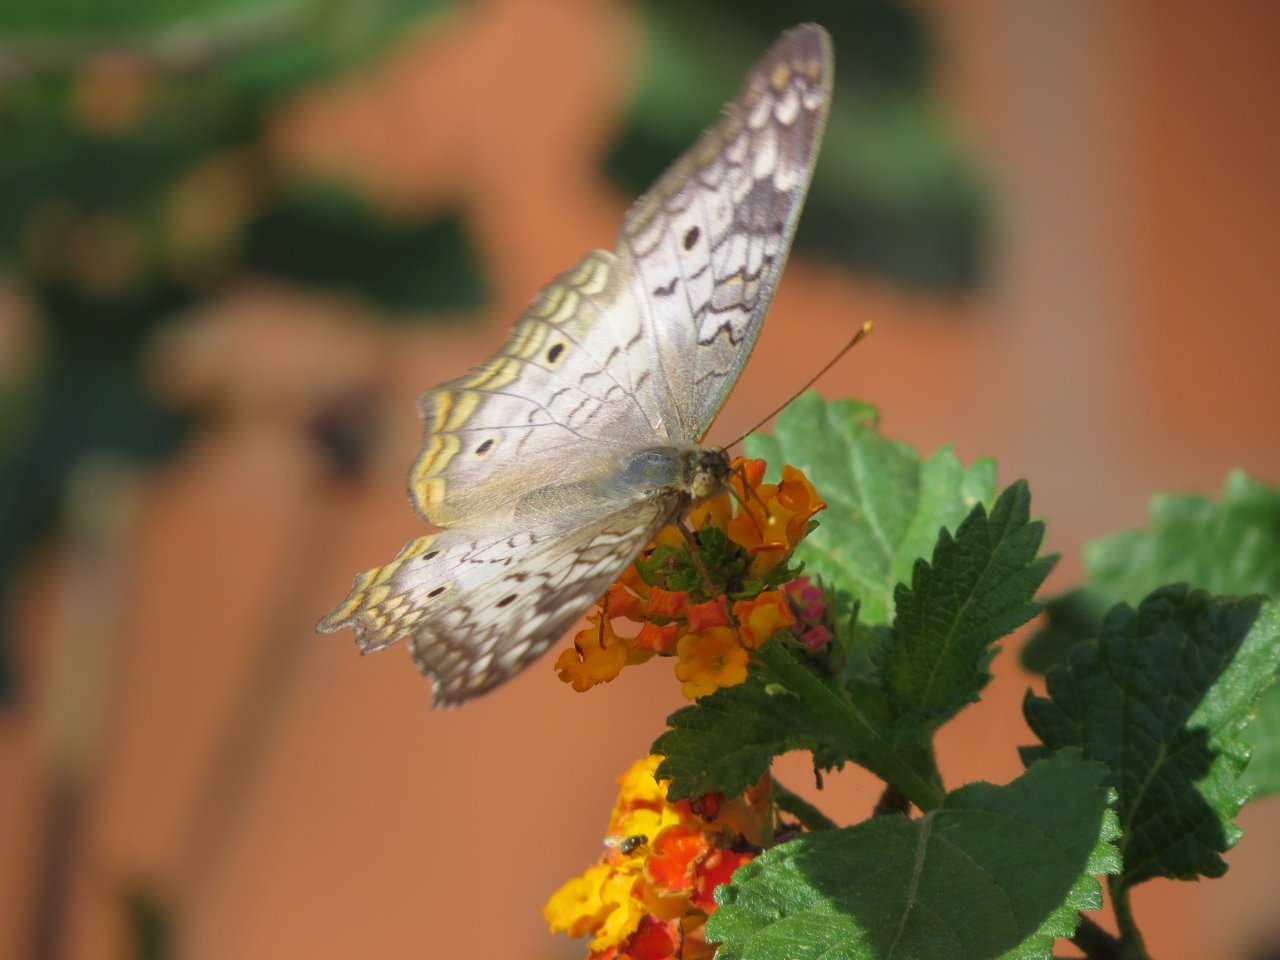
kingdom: Animalia
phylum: Arthropoda
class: Insecta
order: Lepidoptera
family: Nymphalidae
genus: Anartia
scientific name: Anartia jatrophae
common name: White Peacock
